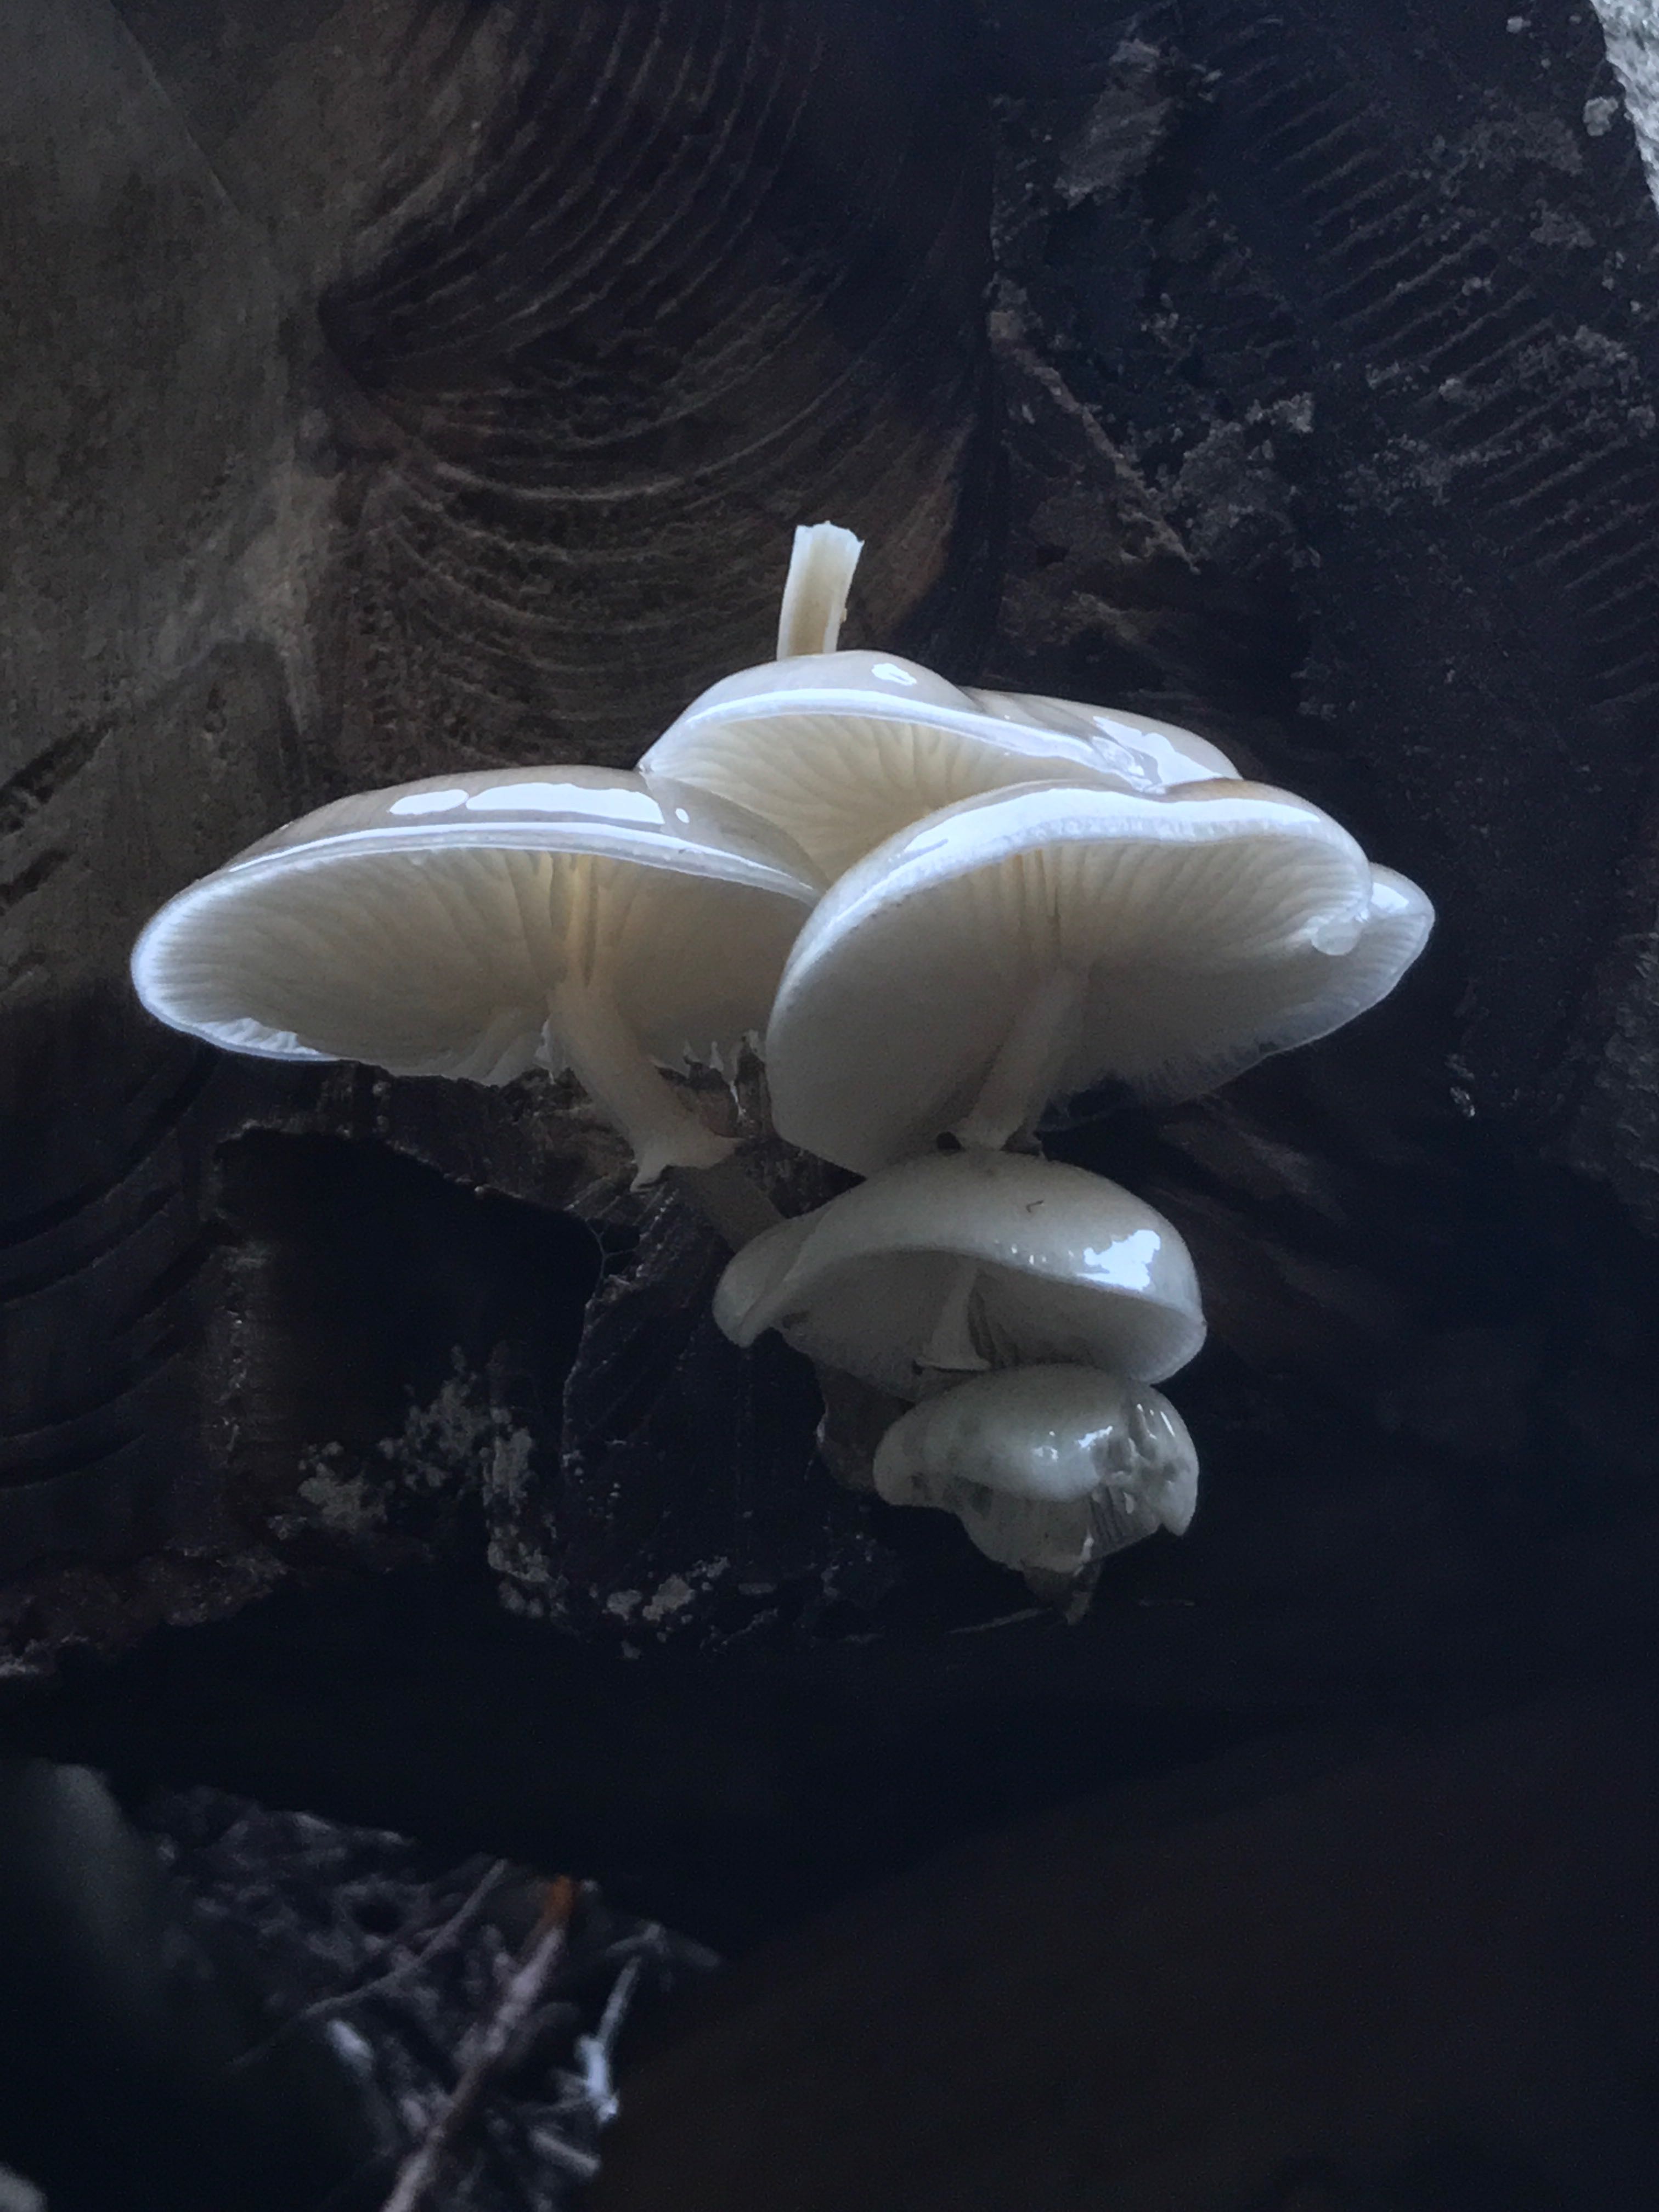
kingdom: Fungi
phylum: Basidiomycota
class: Agaricomycetes
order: Agaricales
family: Physalacriaceae
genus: Mucidula
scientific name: Mucidula mucida
